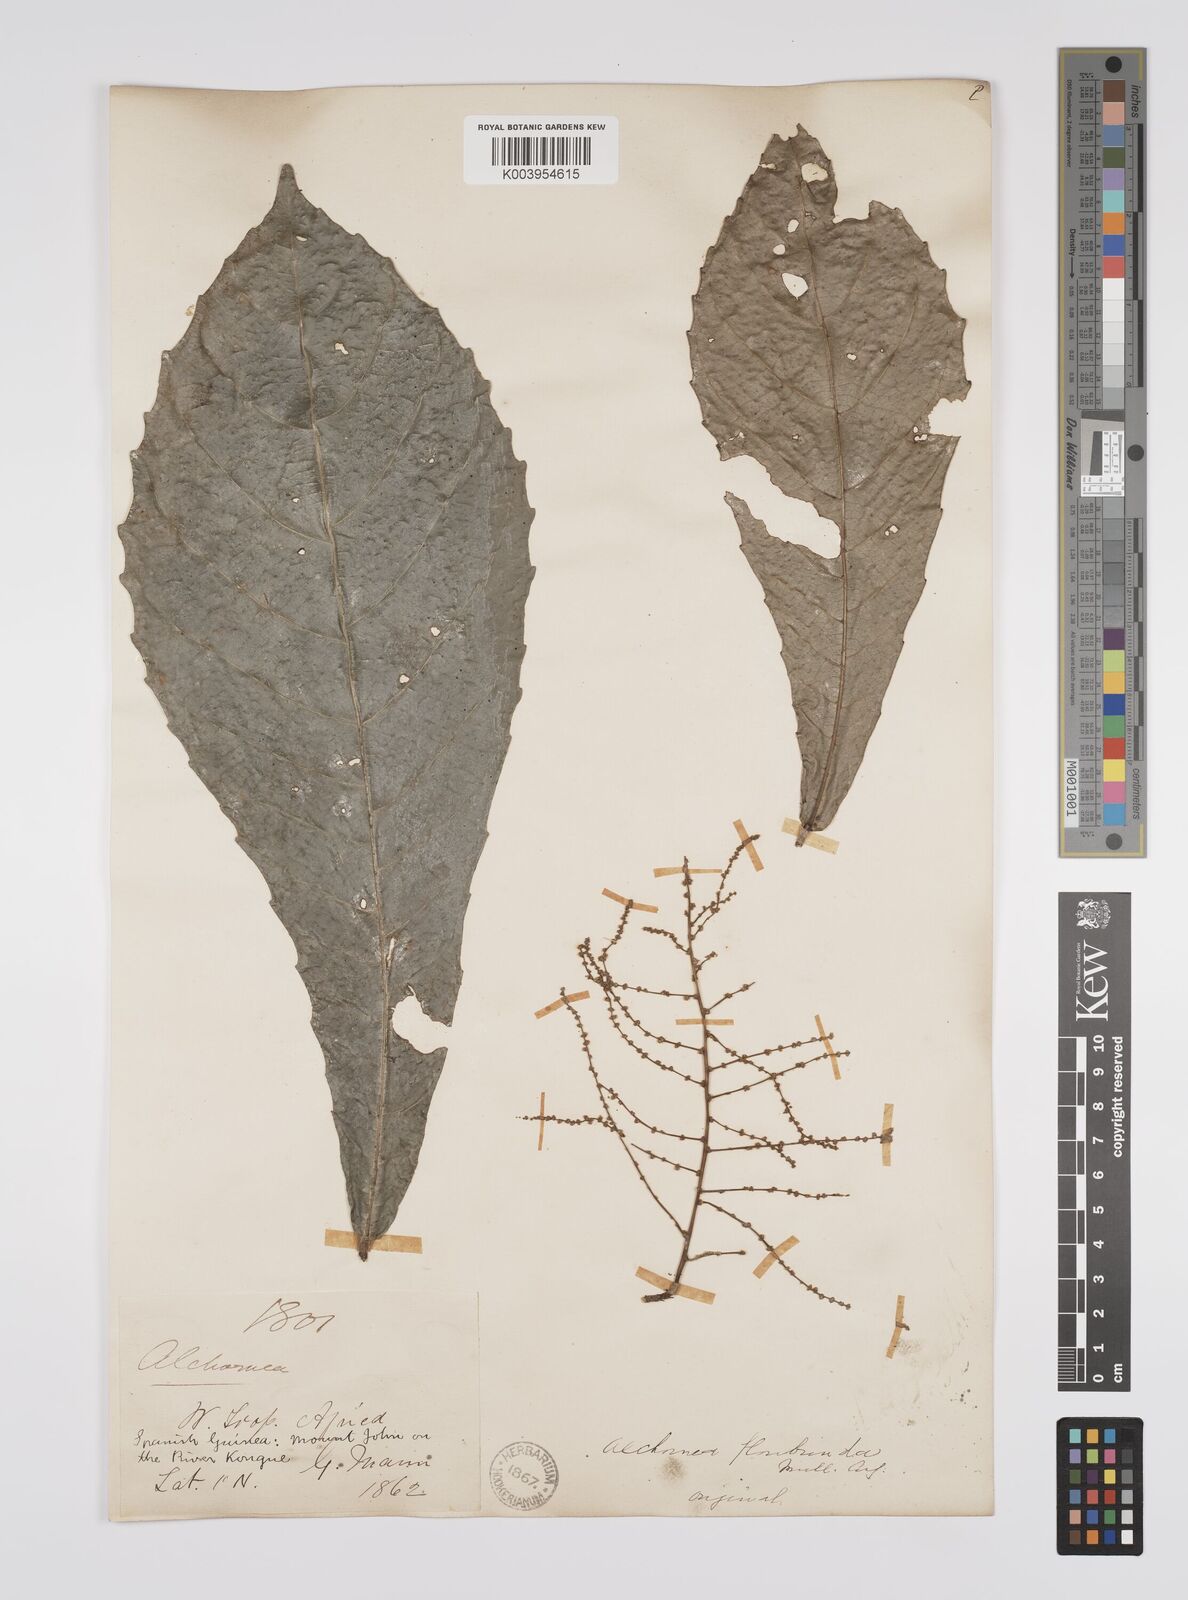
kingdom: Plantae
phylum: Tracheophyta
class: Magnoliopsida
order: Malpighiales
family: Euphorbiaceae
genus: Alchornea
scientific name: Alchornea floribunda
